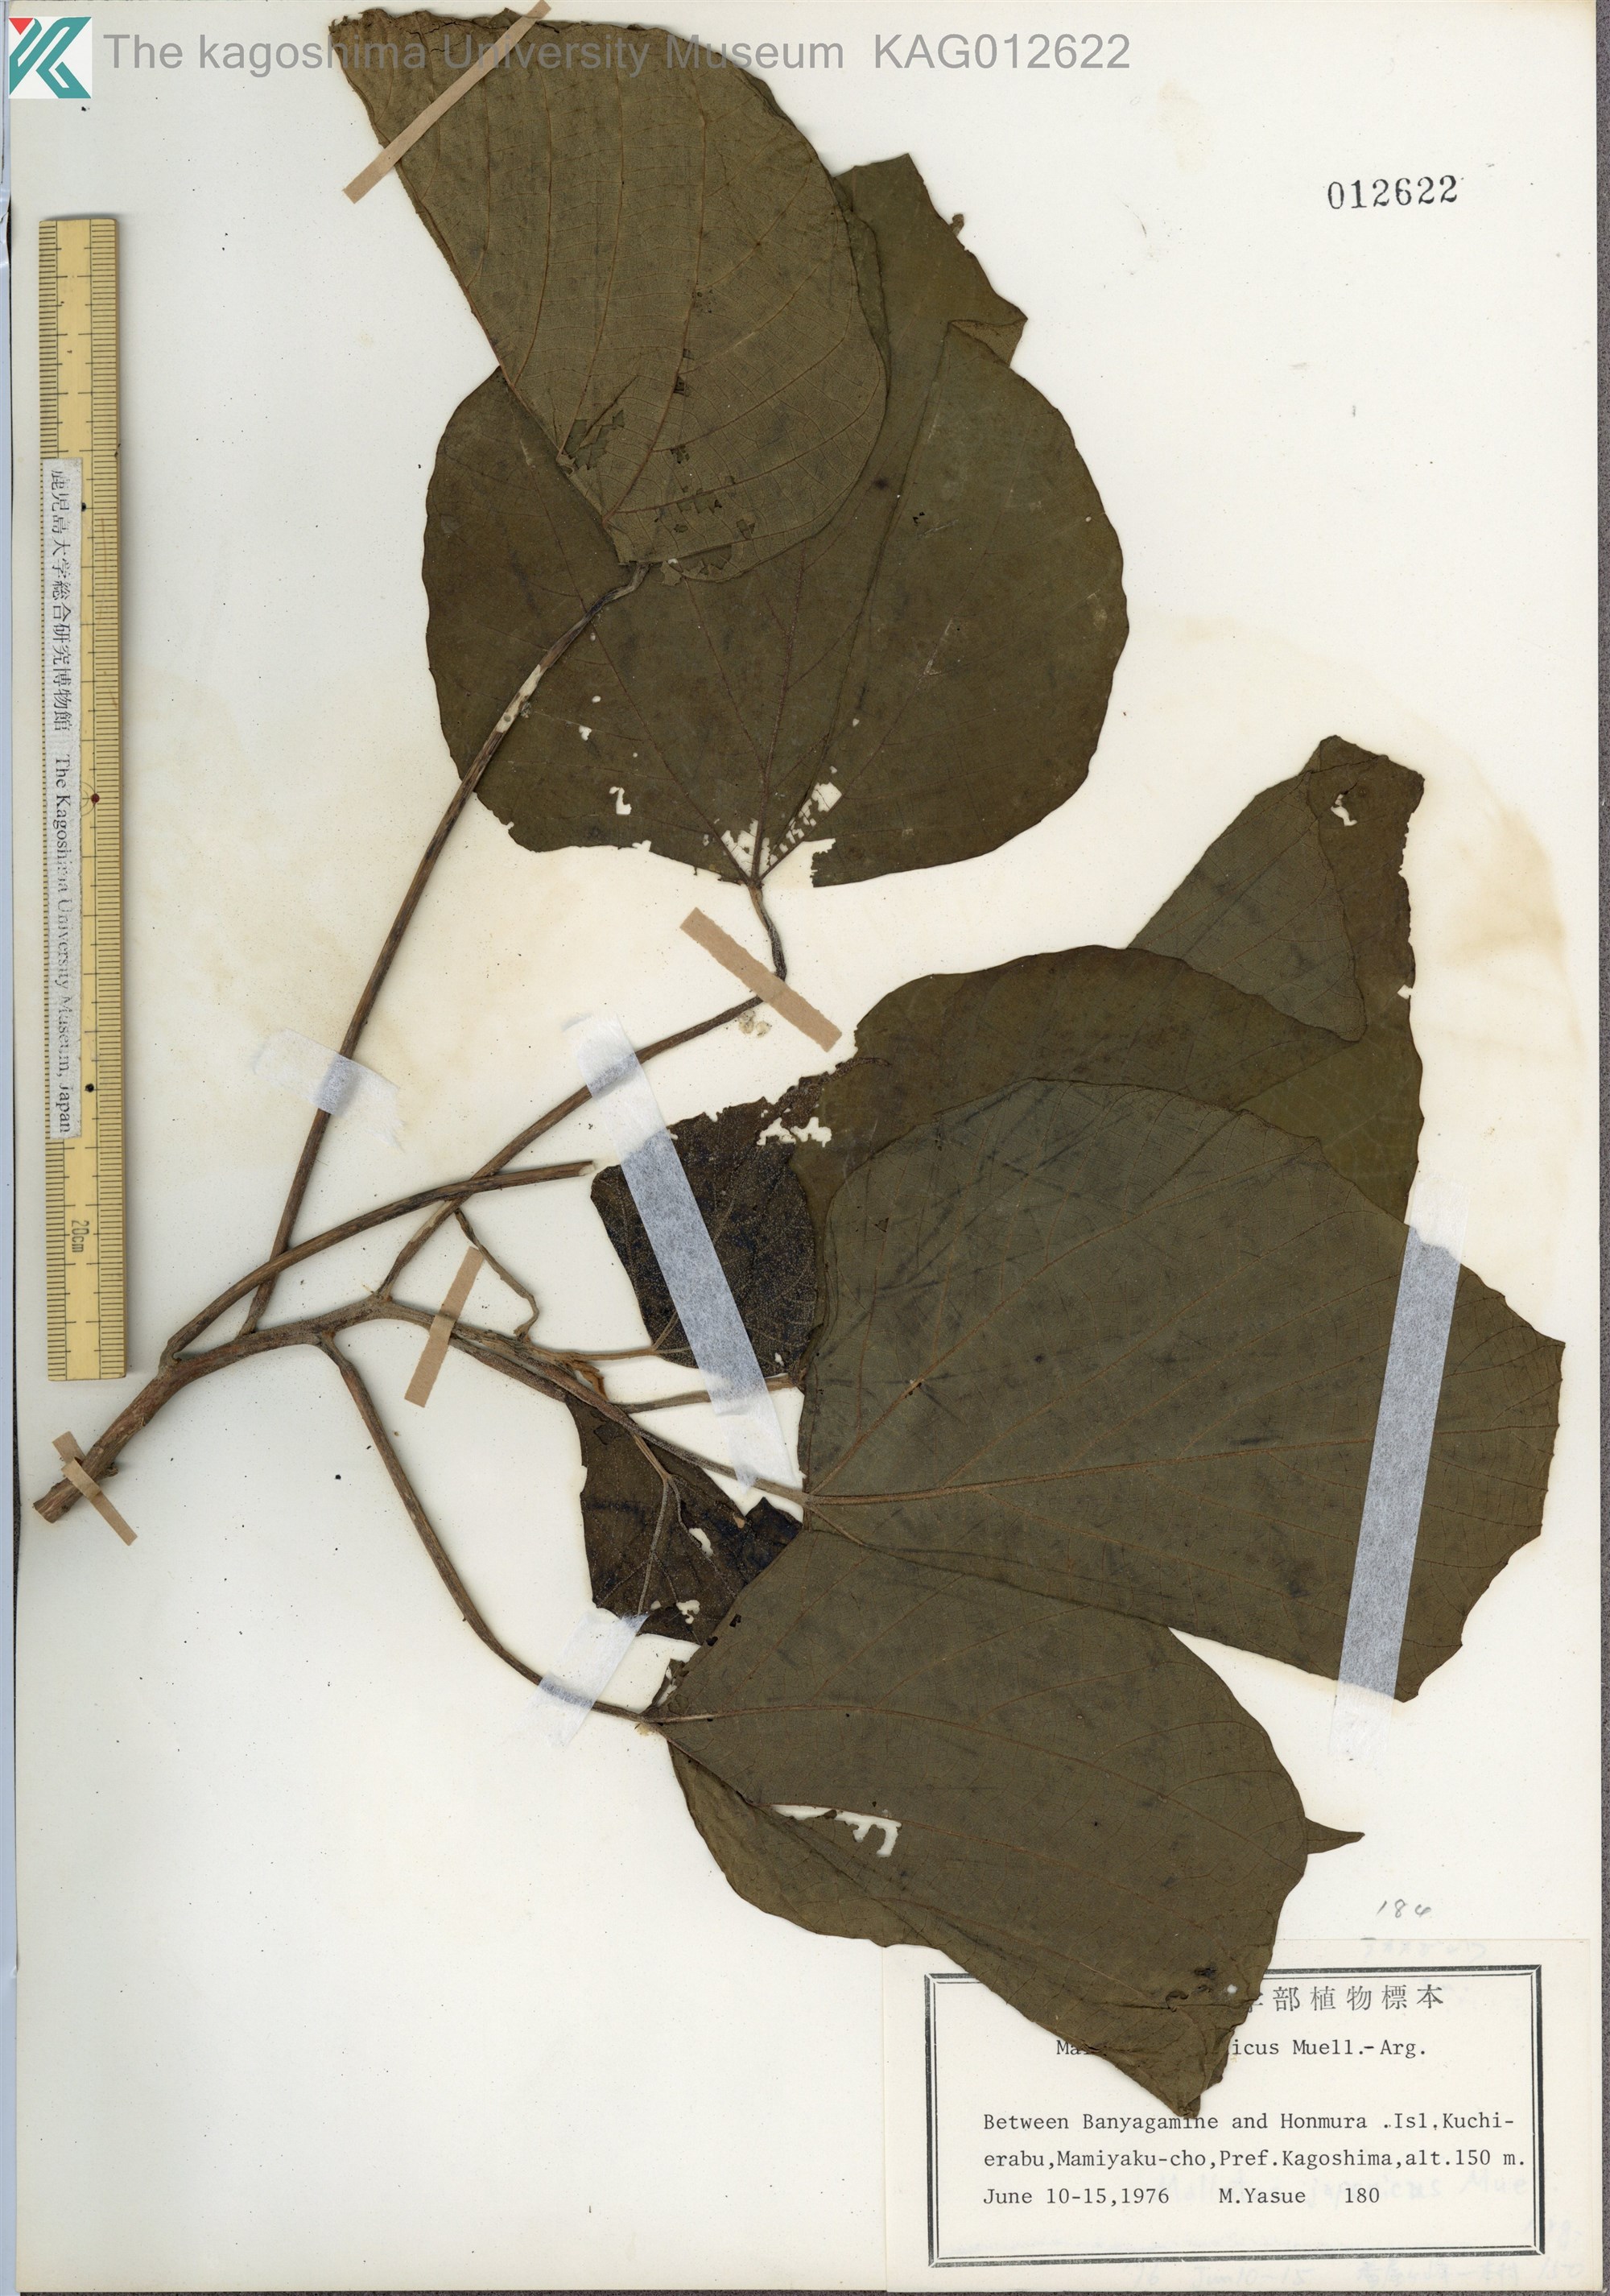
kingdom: Plantae
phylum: Tracheophyta
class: Magnoliopsida
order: Malpighiales
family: Euphorbiaceae
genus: Mallotus
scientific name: Mallotus japonicus
